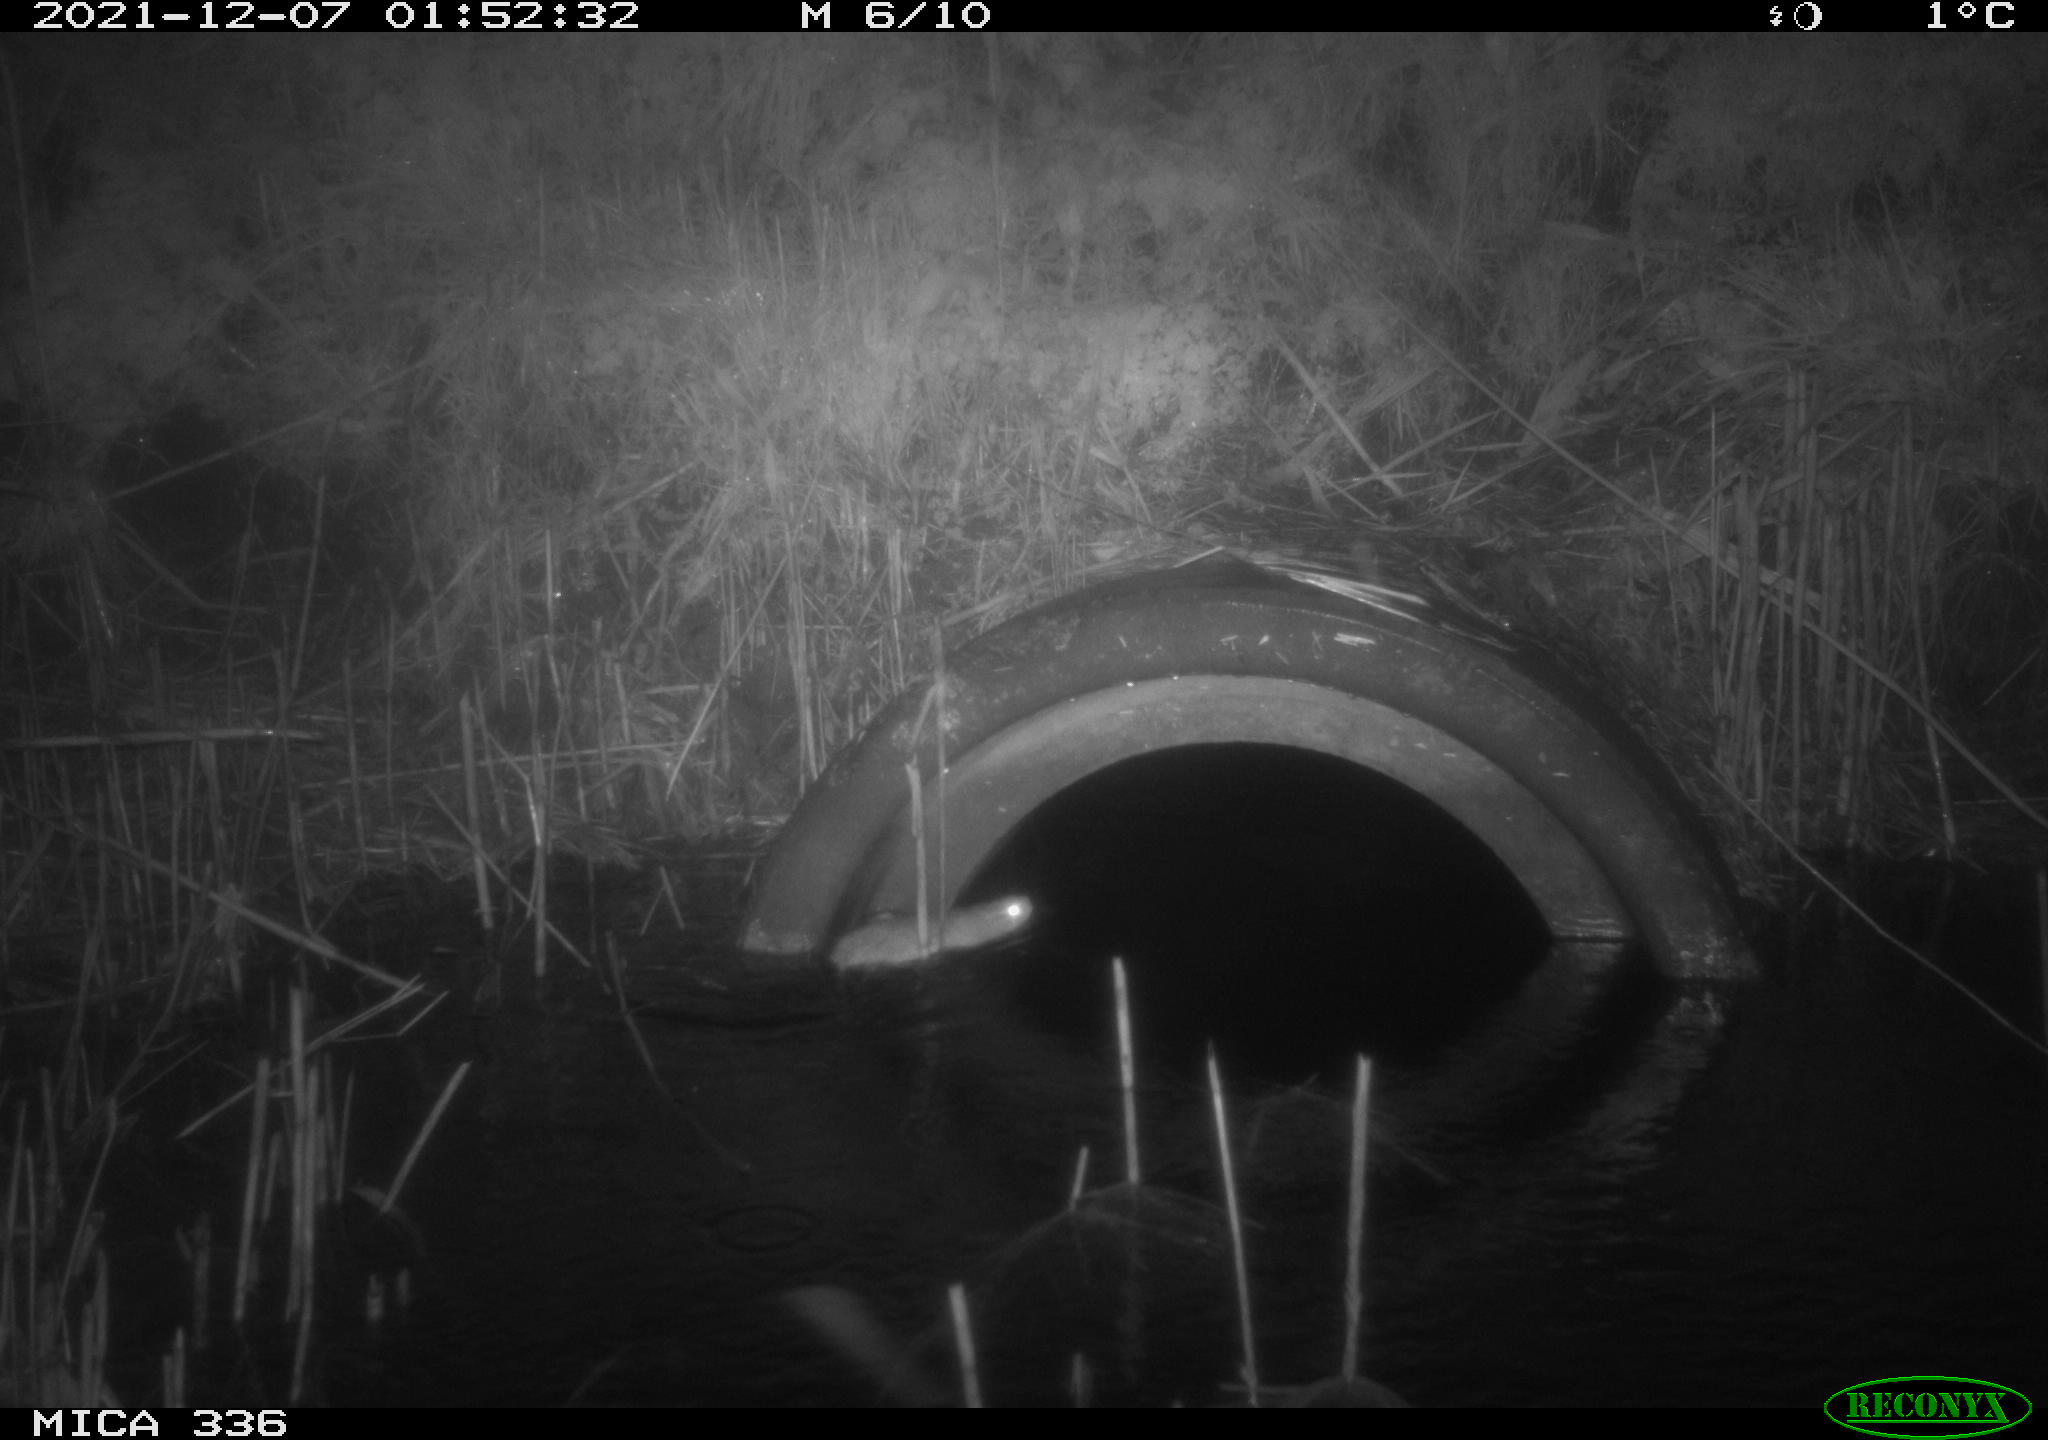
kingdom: Animalia
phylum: Chordata
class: Mammalia
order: Rodentia
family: Muridae
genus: Rattus
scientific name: Rattus norvegicus
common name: Brown rat
